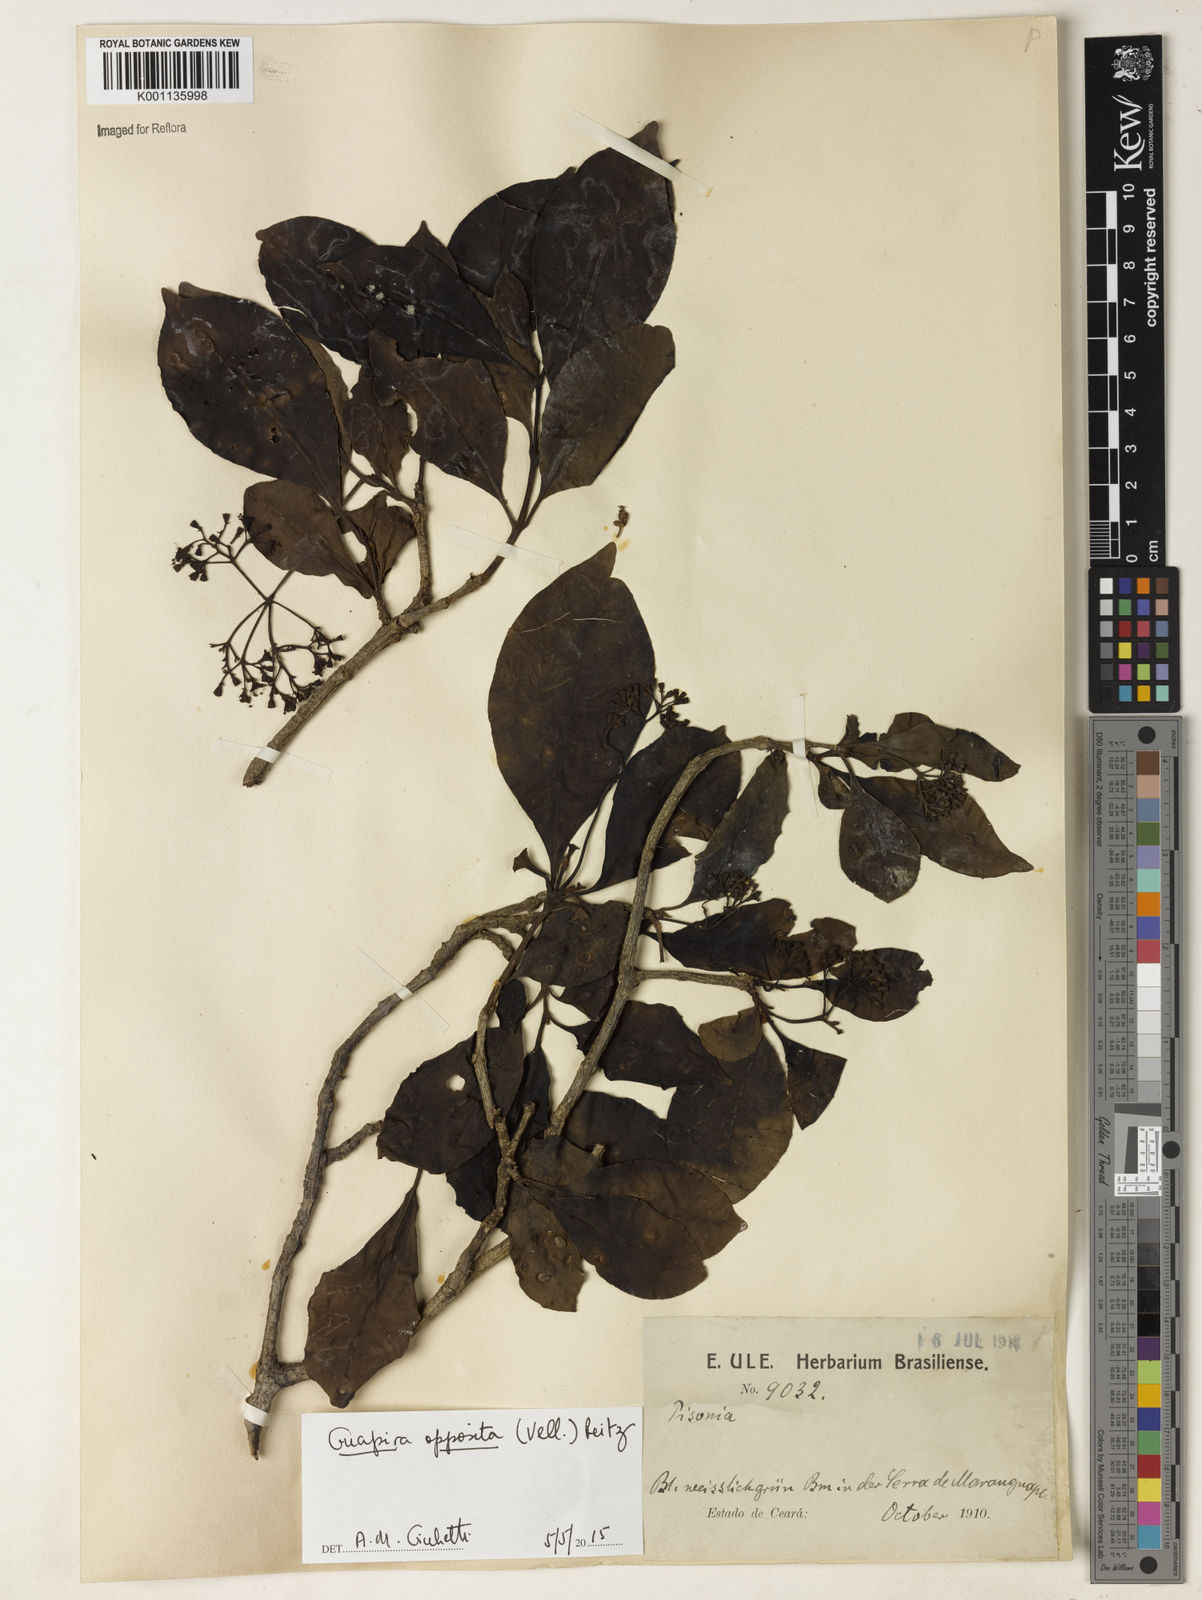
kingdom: Plantae
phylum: Tracheophyta
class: Magnoliopsida
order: Caryophyllales
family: Nyctaginaceae
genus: Guapira
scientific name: Guapira opposita
